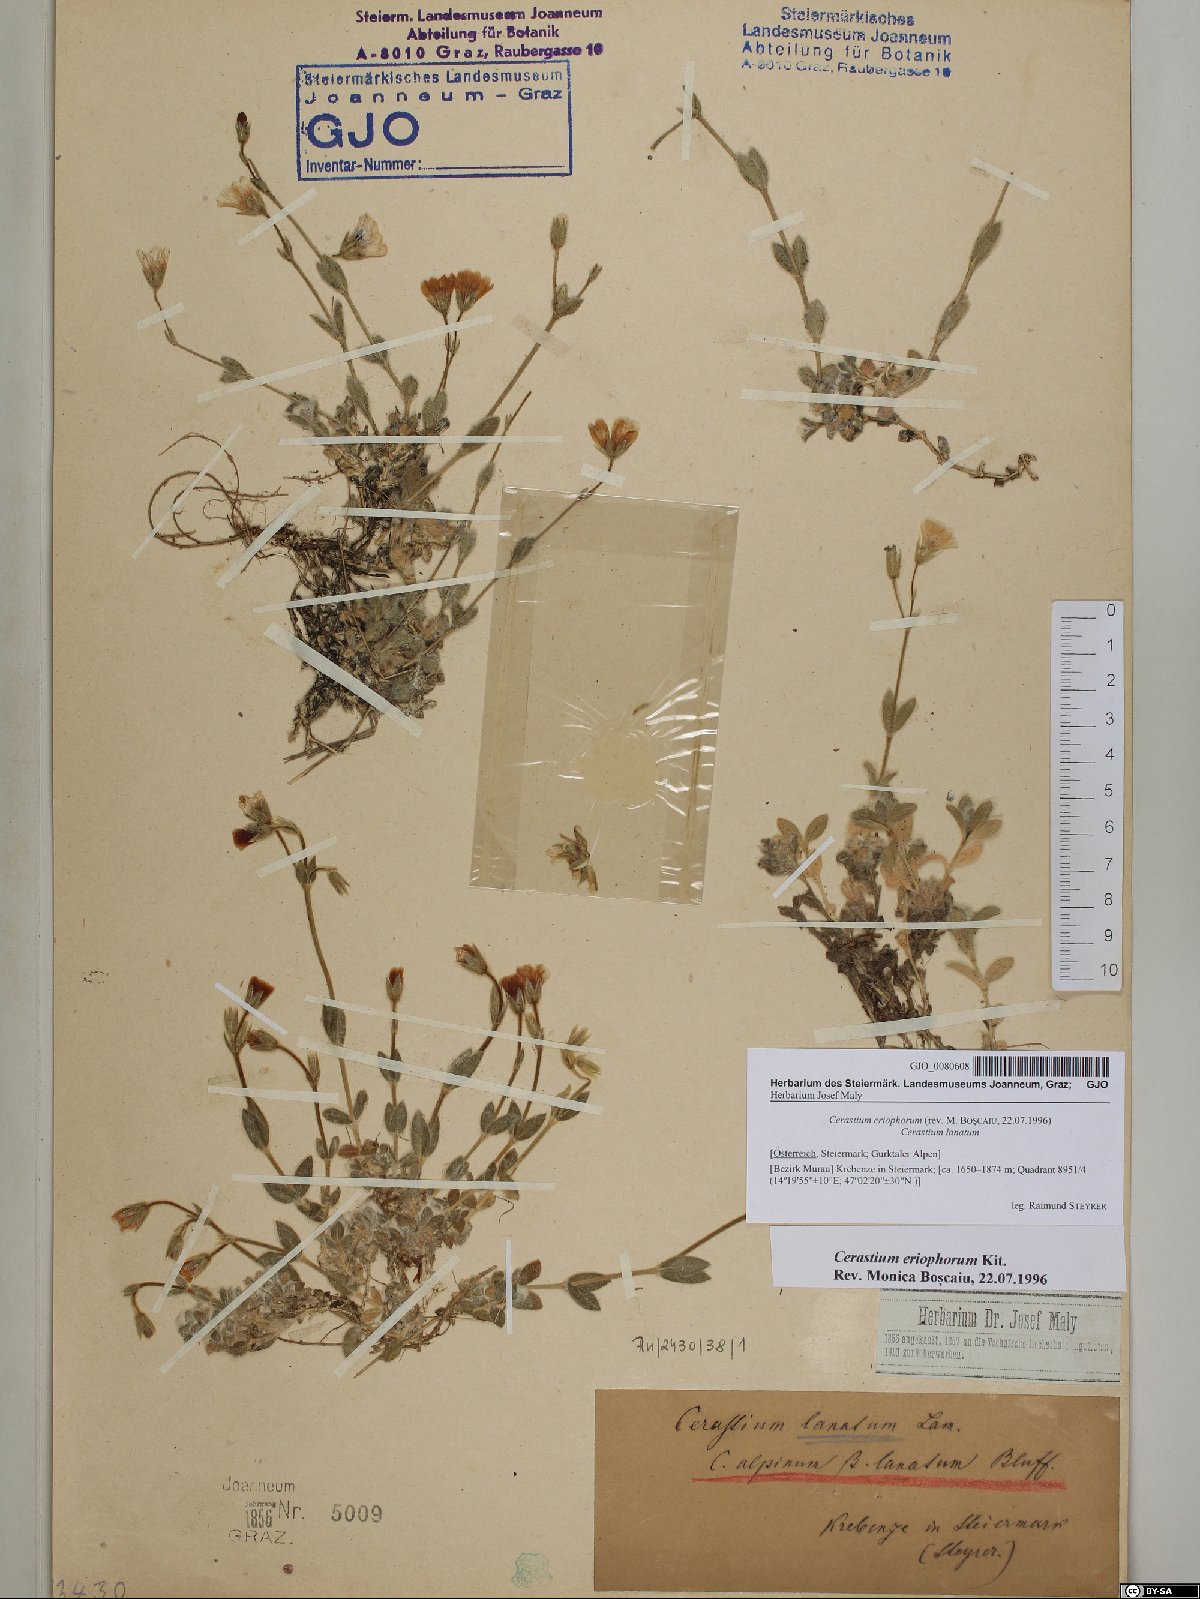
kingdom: Plantae
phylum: Tracheophyta
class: Magnoliopsida
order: Caryophyllales
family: Caryophyllaceae
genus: Cerastium
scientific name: Cerastium eriophorum
